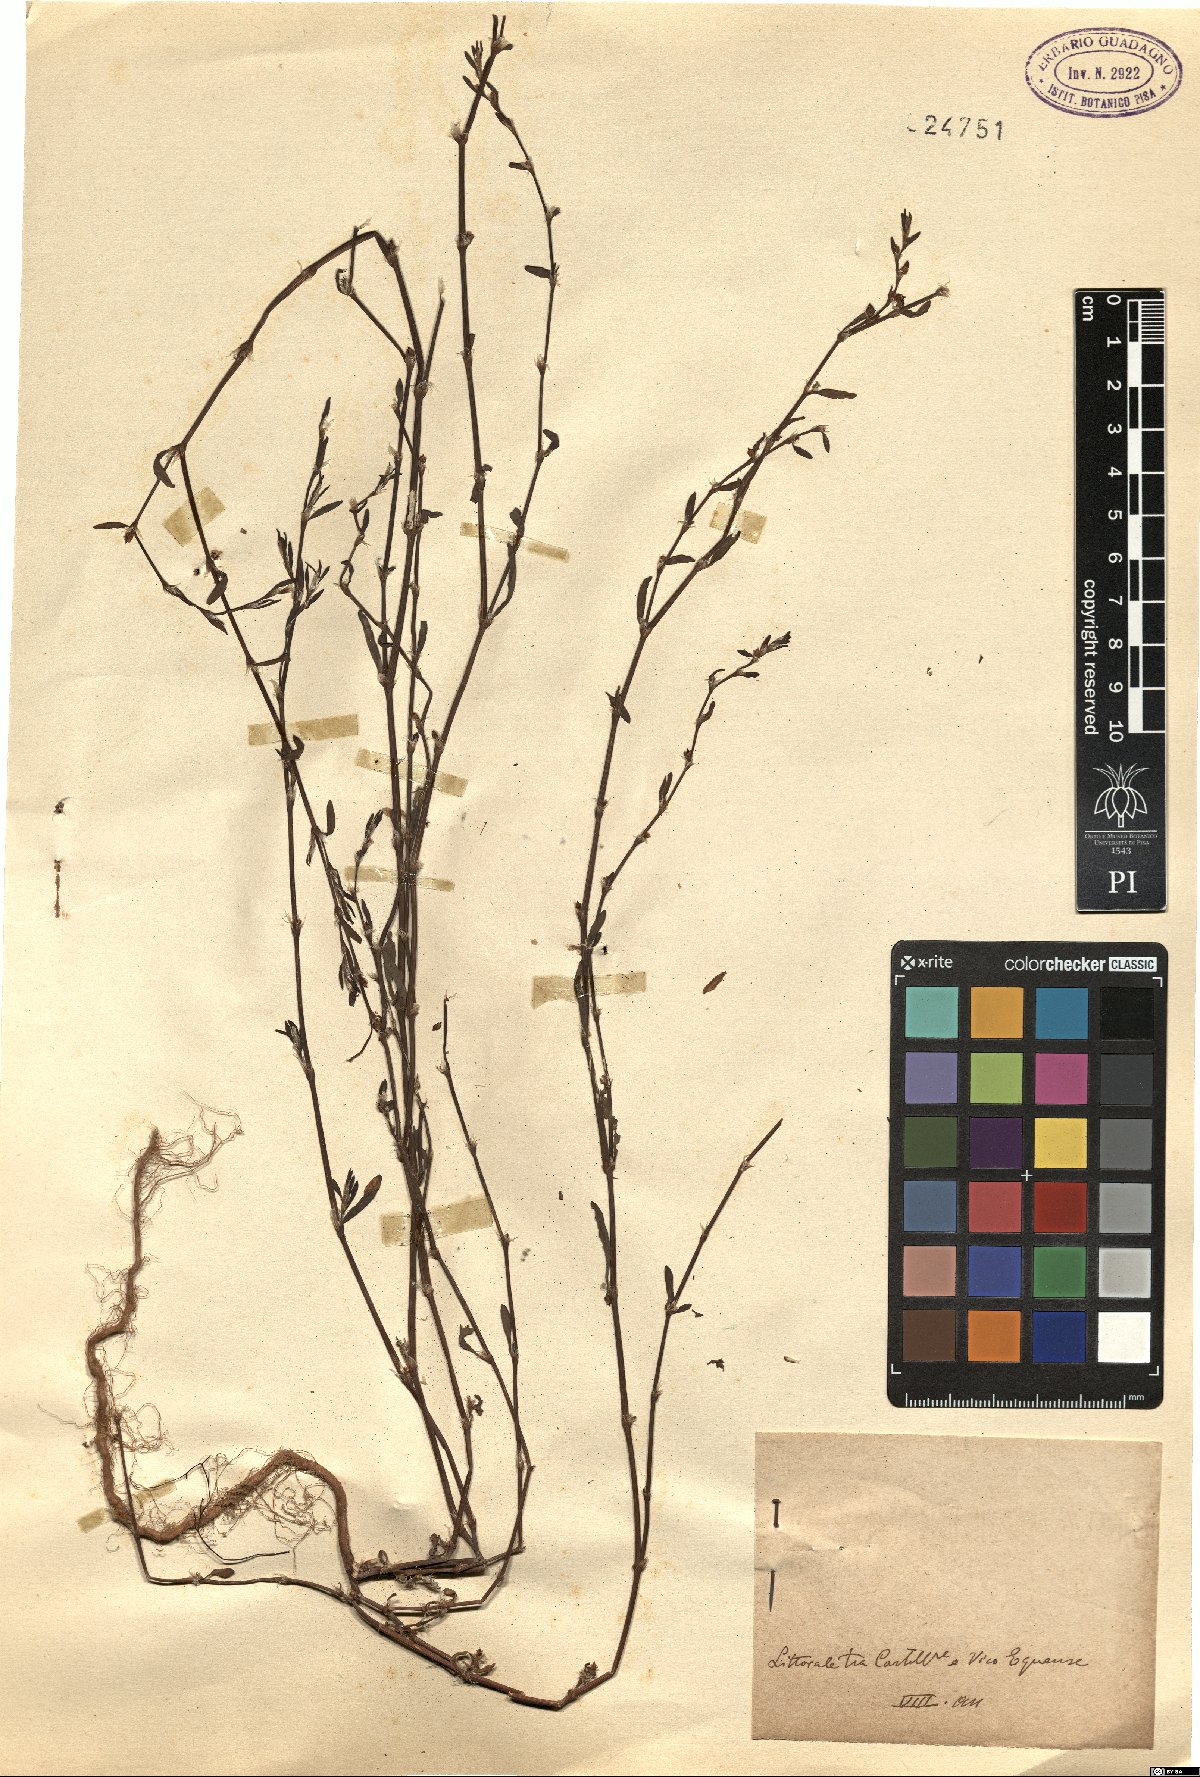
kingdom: Plantae
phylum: Tracheophyta
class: Magnoliopsida
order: Caryophyllales
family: Polygonaceae
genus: Polygonum
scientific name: Polygonum
